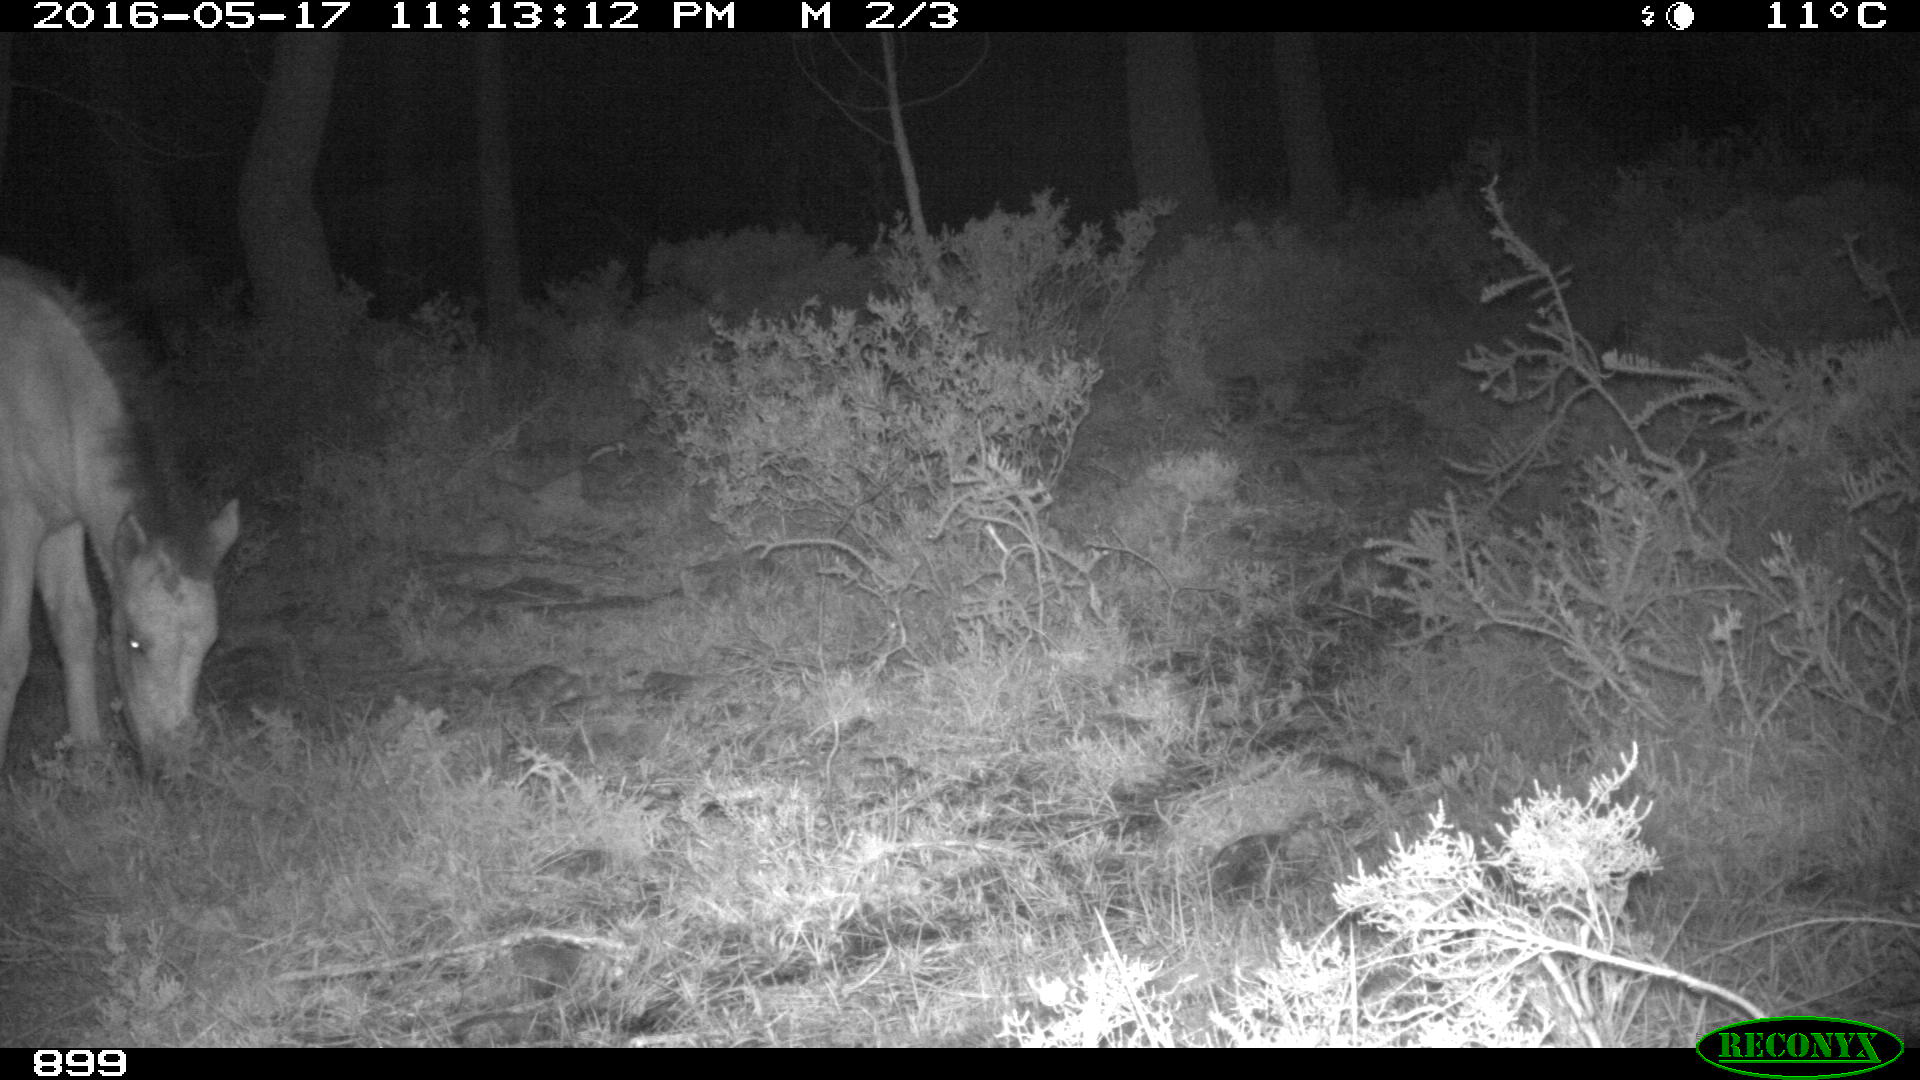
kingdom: Animalia
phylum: Chordata
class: Mammalia
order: Perissodactyla
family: Equidae
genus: Equus
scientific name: Equus caballus
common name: Horse
